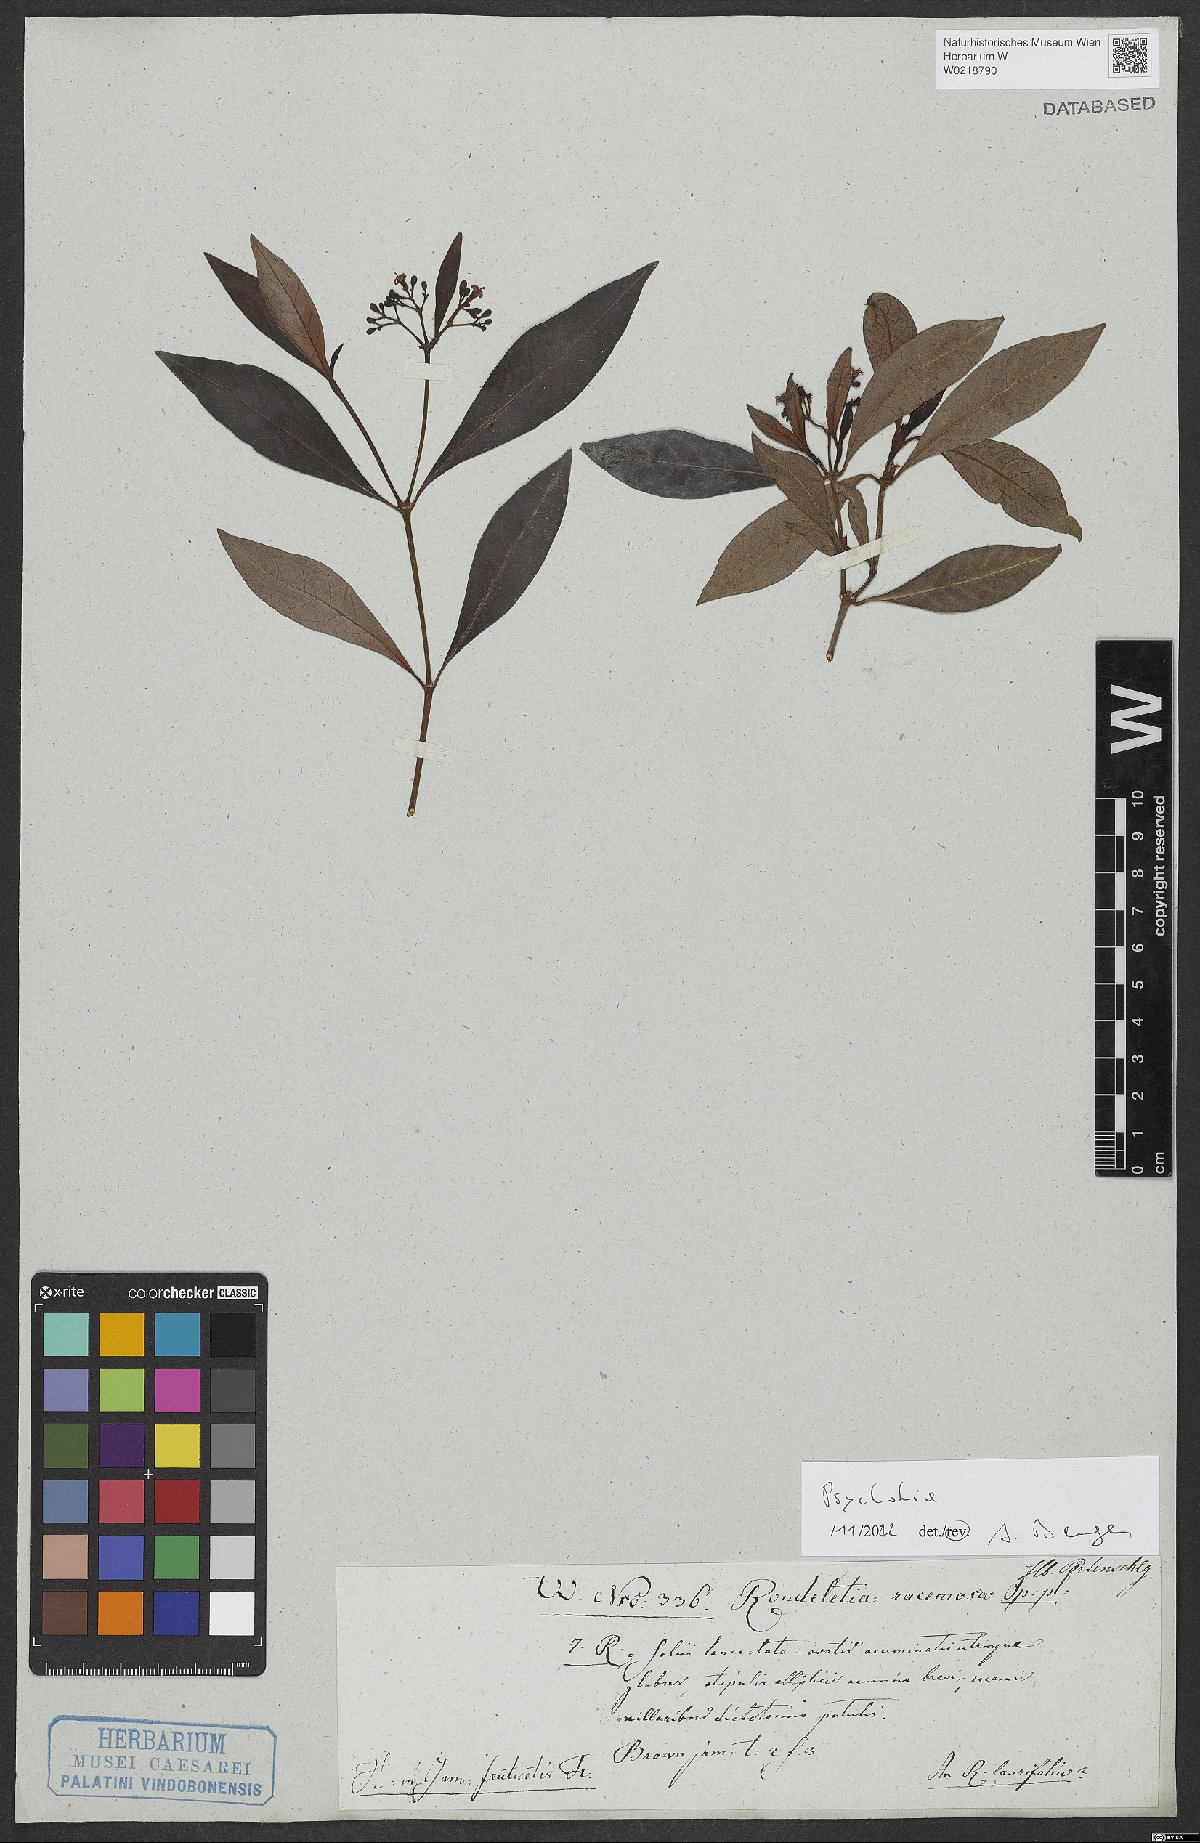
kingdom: Plantae
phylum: Tracheophyta
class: Magnoliopsida
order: Gentianales
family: Rubiaceae
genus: Psychotria
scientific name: Psychotria
